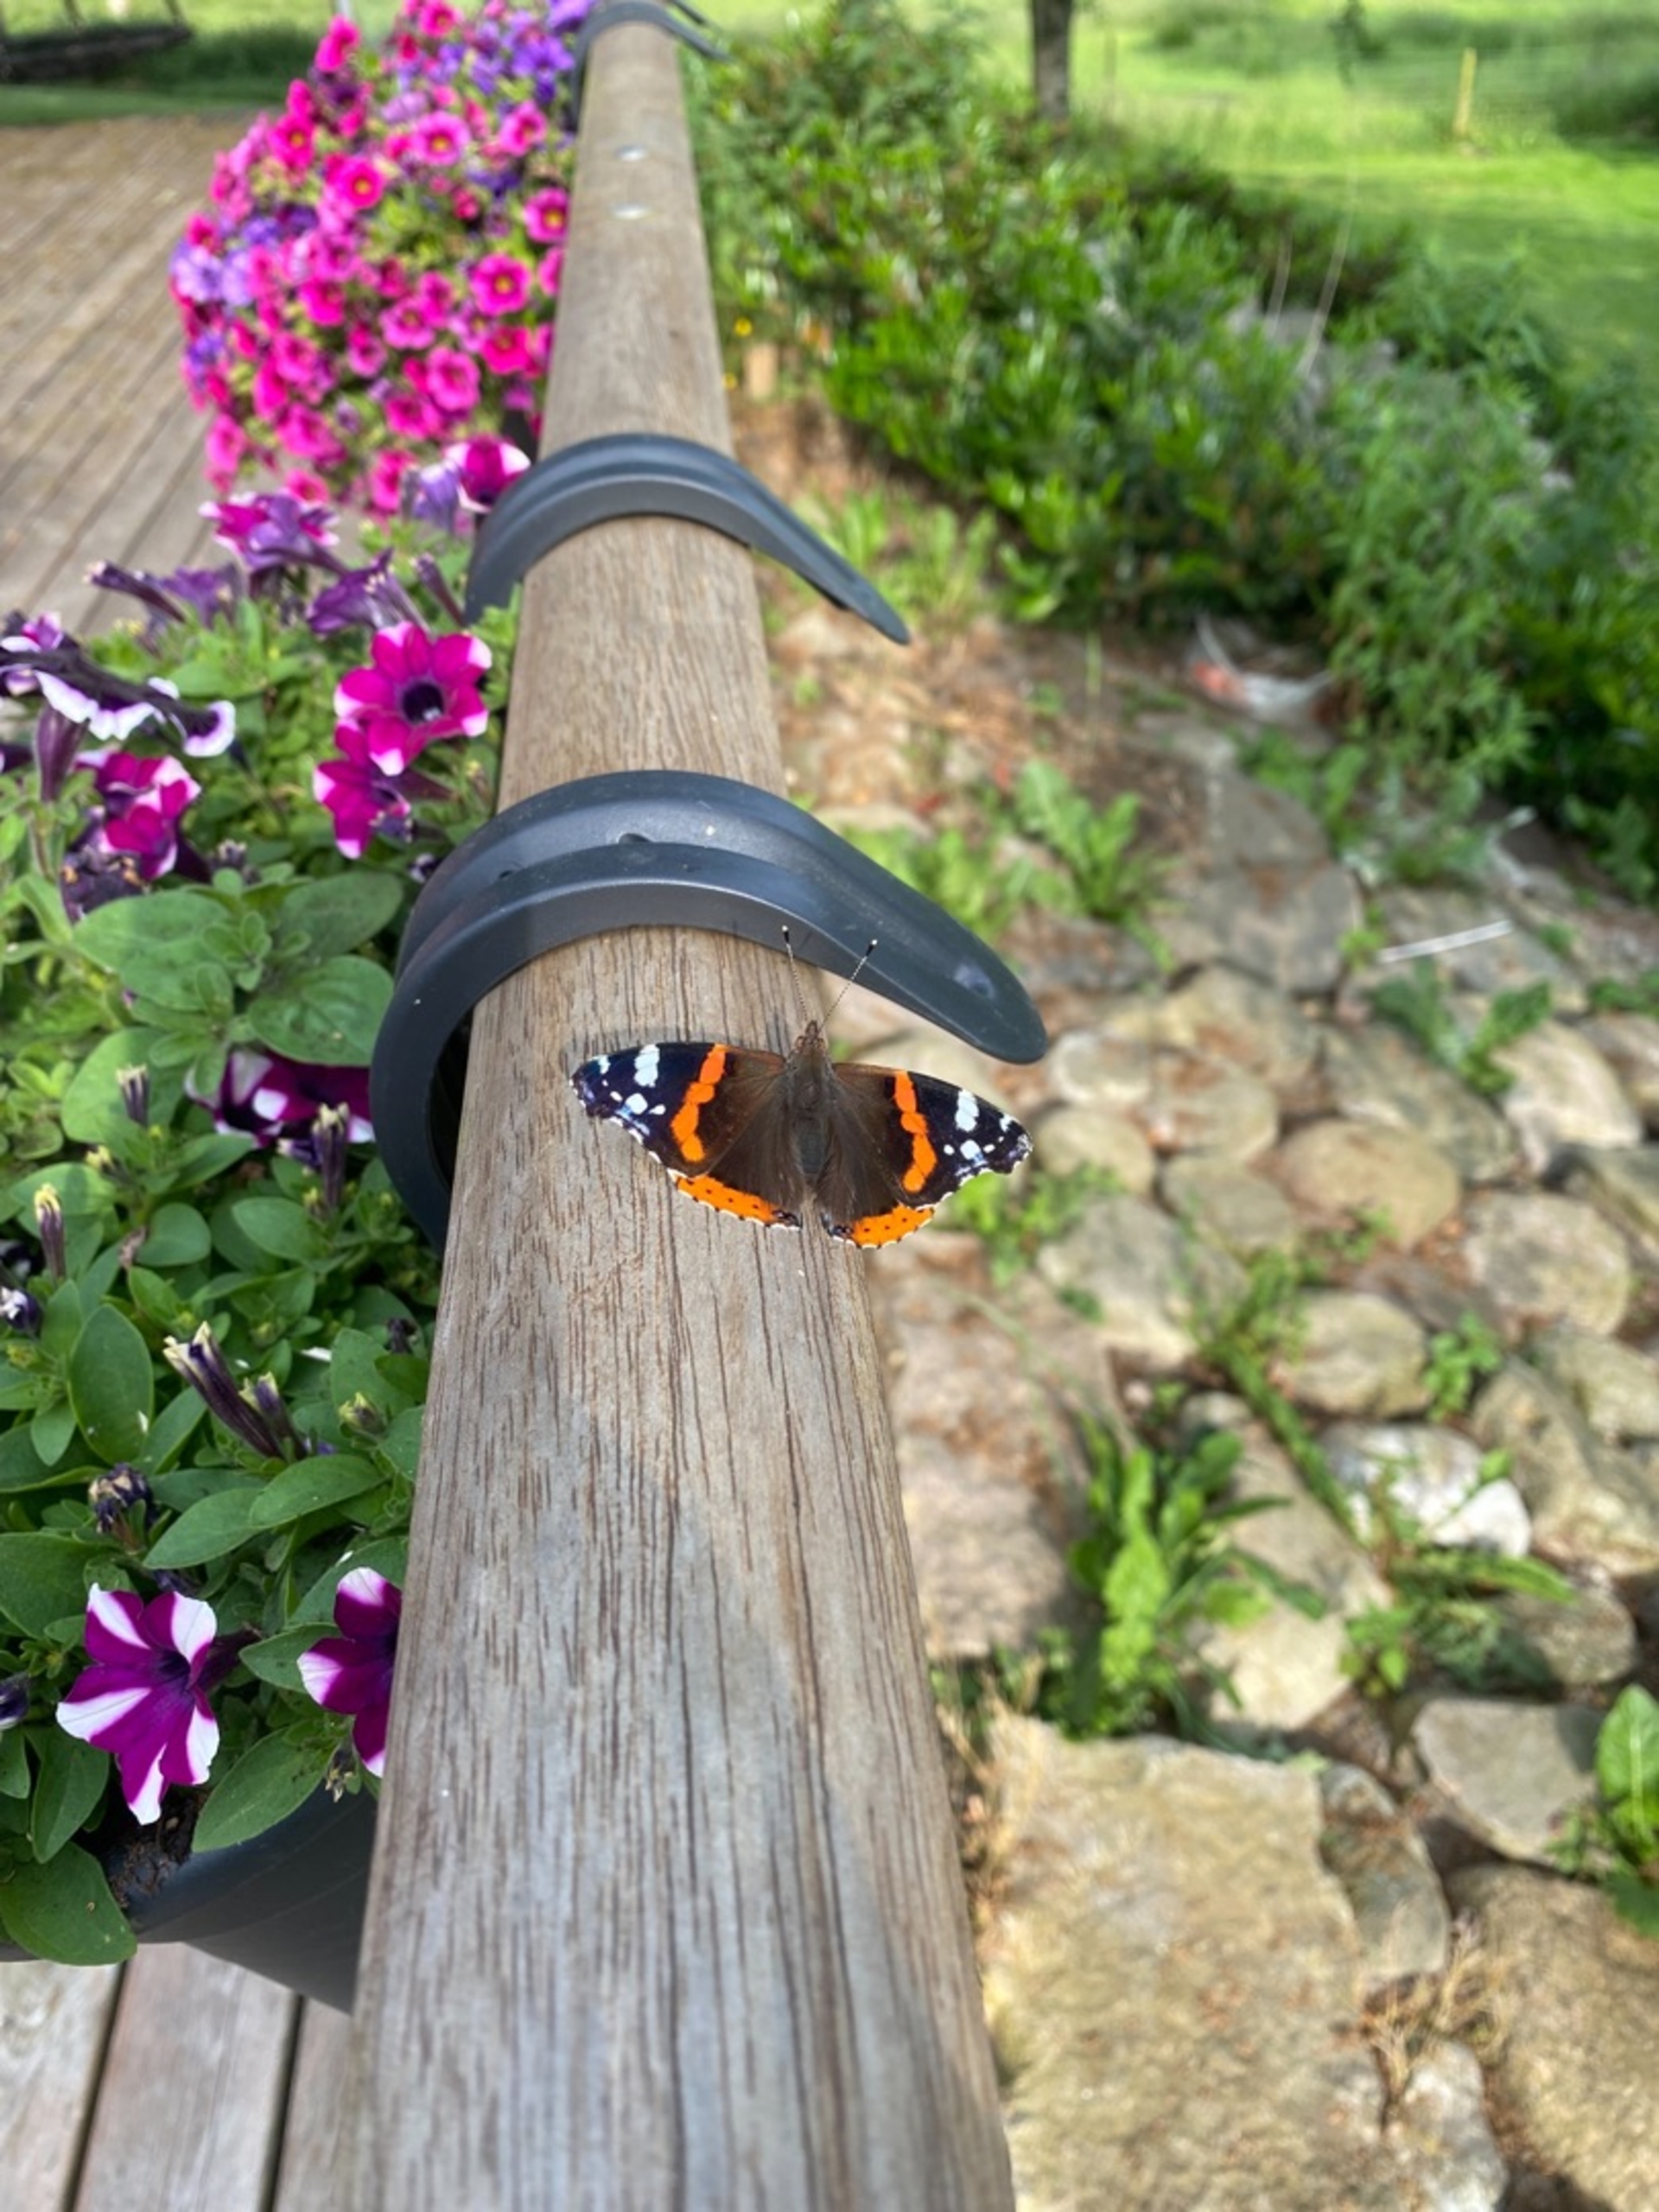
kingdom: Animalia
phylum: Arthropoda
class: Insecta
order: Lepidoptera
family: Nymphalidae
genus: Vanessa
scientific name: Vanessa atalanta
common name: Admiral
